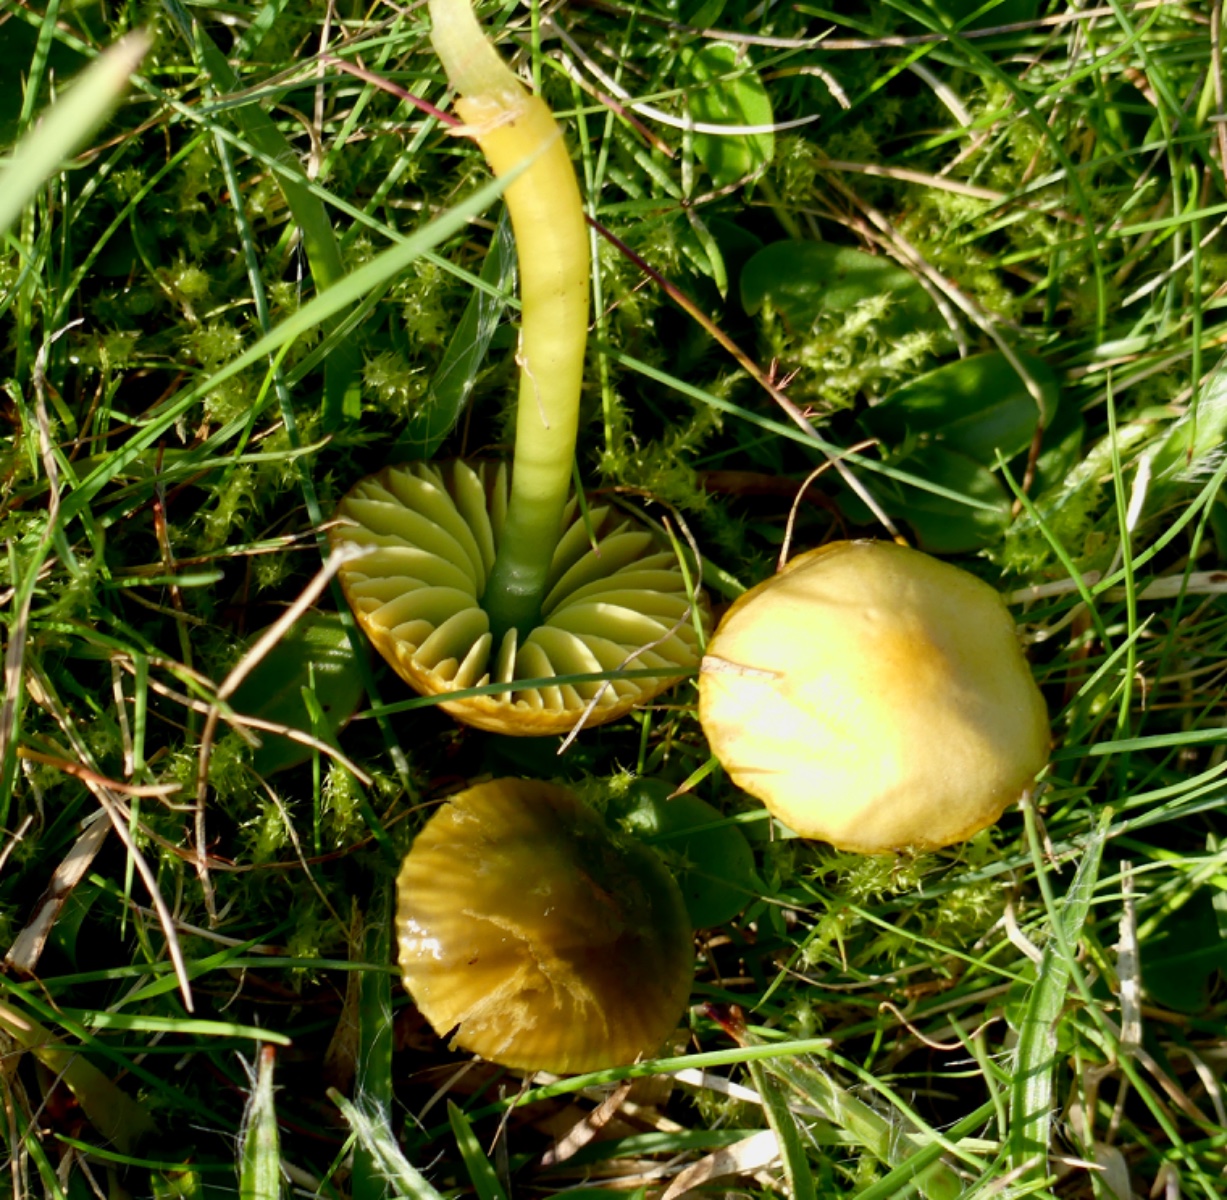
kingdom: Fungi
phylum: Basidiomycota
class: Agaricomycetes
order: Agaricales
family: Hygrophoraceae
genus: Gliophorus
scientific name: Gliophorus psittacinus
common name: papegøje-vokshat
